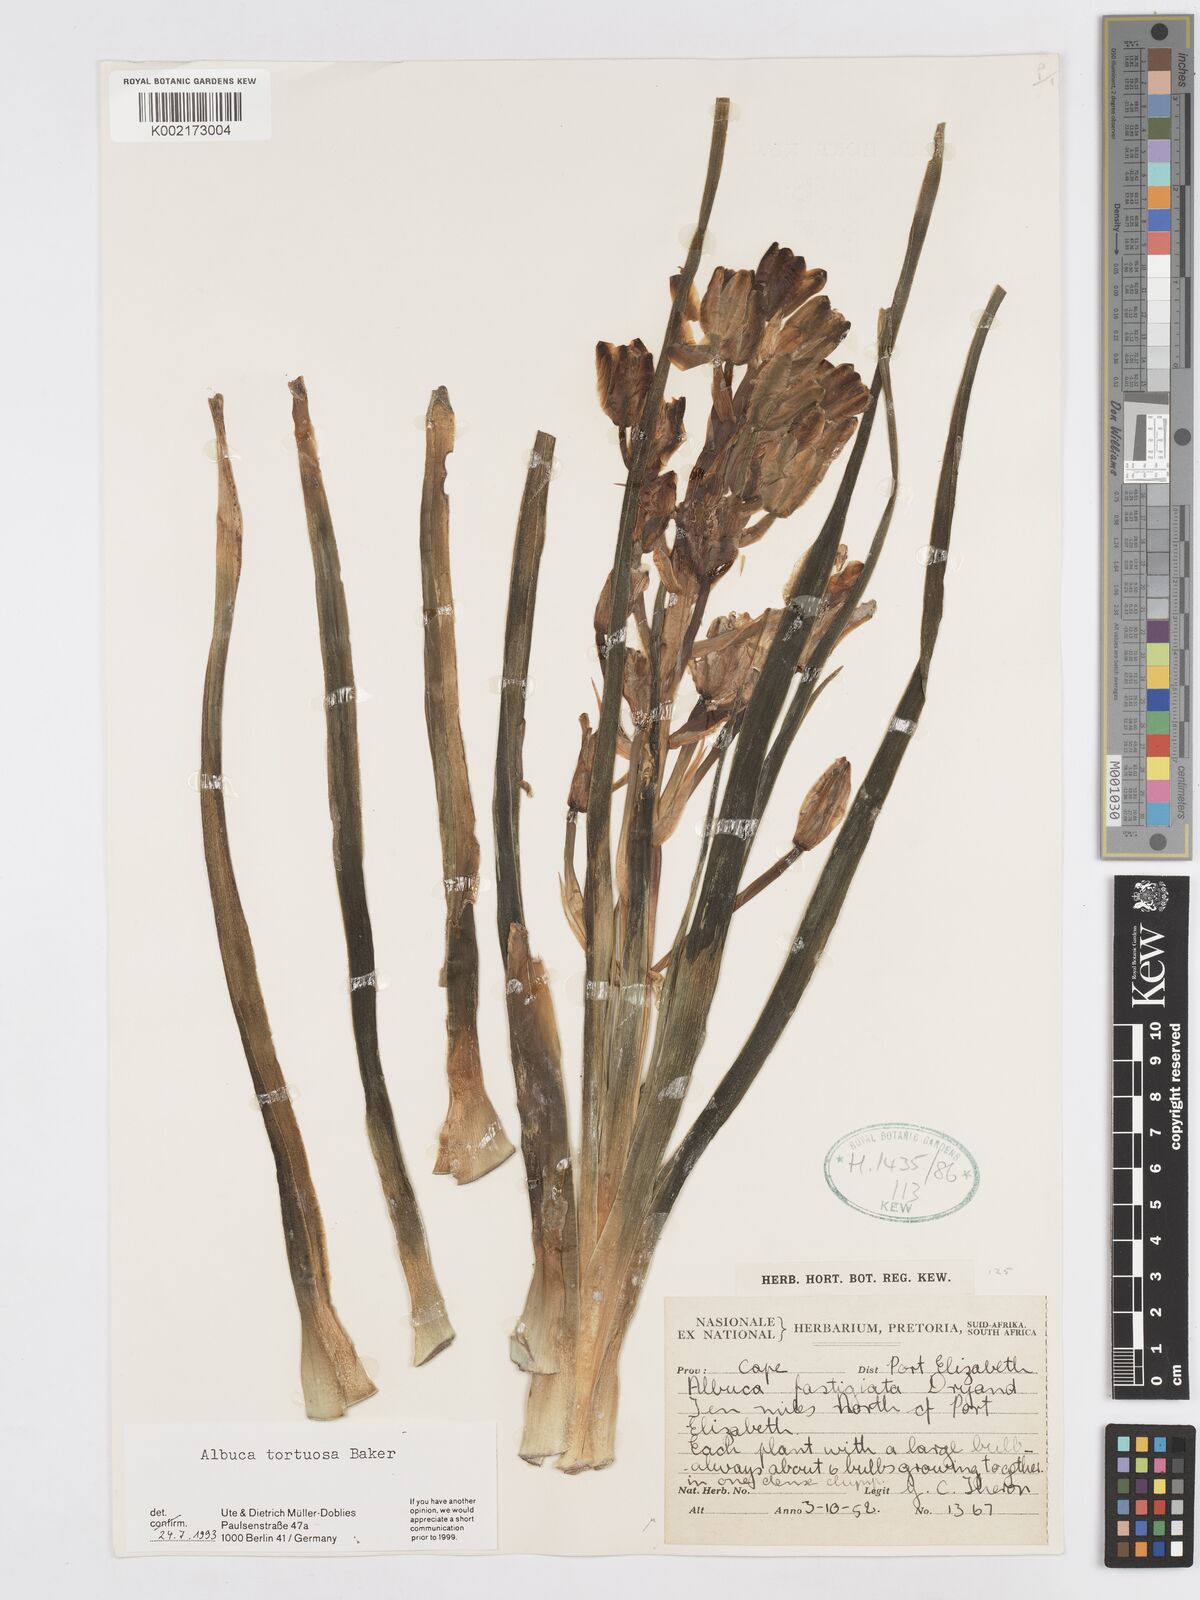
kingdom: Plantae
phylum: Tracheophyta
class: Liliopsida
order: Asparagales
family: Asparagaceae
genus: Albuca
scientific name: Albuca tortuosa
